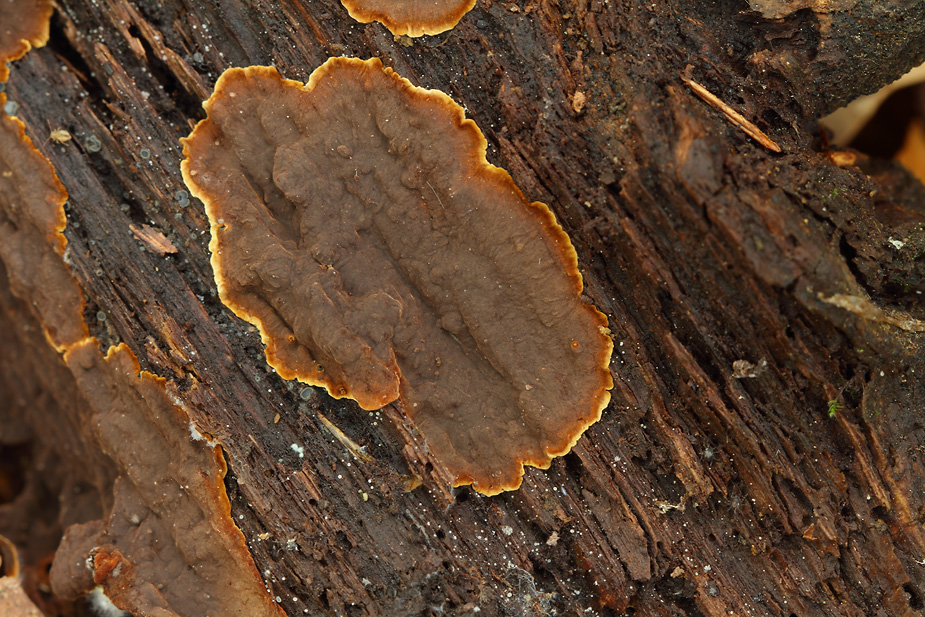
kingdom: Fungi
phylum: Basidiomycota
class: Agaricomycetes
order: Hymenochaetales
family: Hymenochaetaceae
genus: Hymenochaete
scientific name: Hymenochaete rubiginosa
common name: stiv ruslædersvamp
